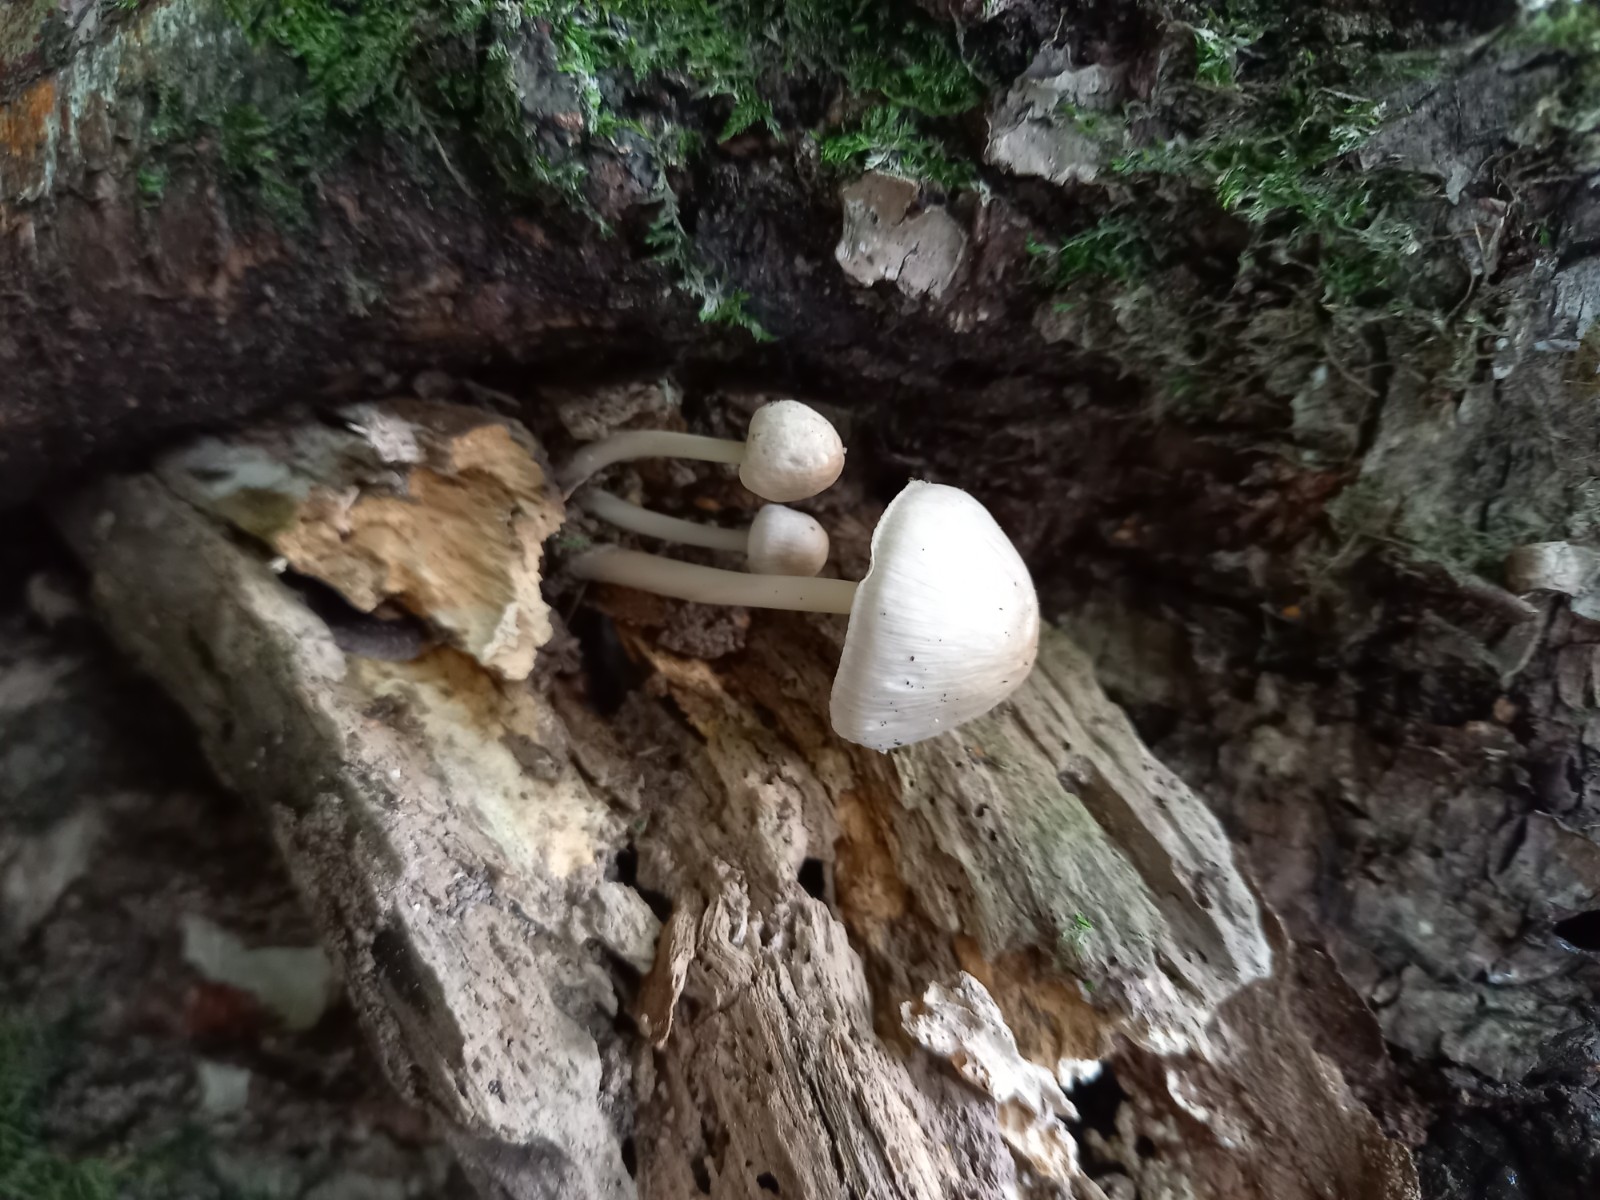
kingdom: Fungi
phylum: Basidiomycota
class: Agaricomycetes
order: Agaricales
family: Mycenaceae
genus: Mycena
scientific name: Mycena galericulata
